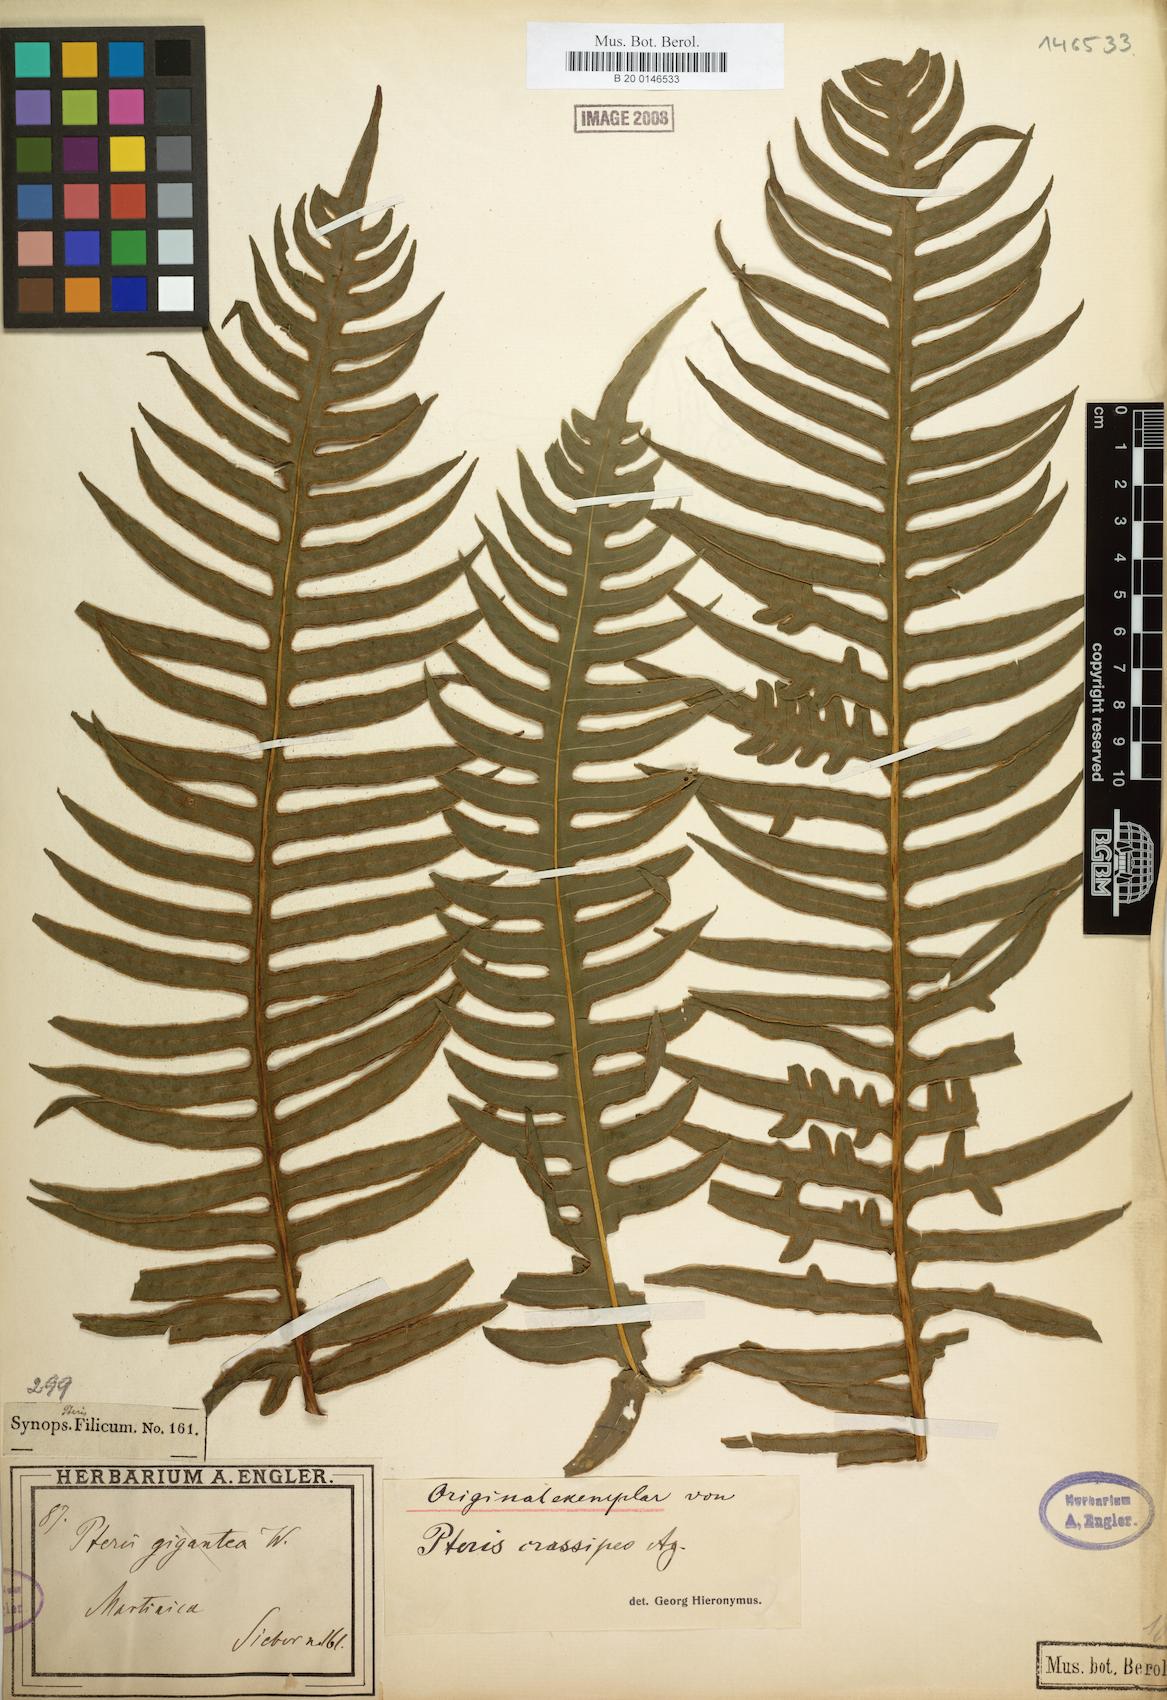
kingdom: Plantae
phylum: Tracheophyta
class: Polypodiopsida
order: Polypodiales
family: Pteridaceae
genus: Pteris
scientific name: Pteris gigantea
